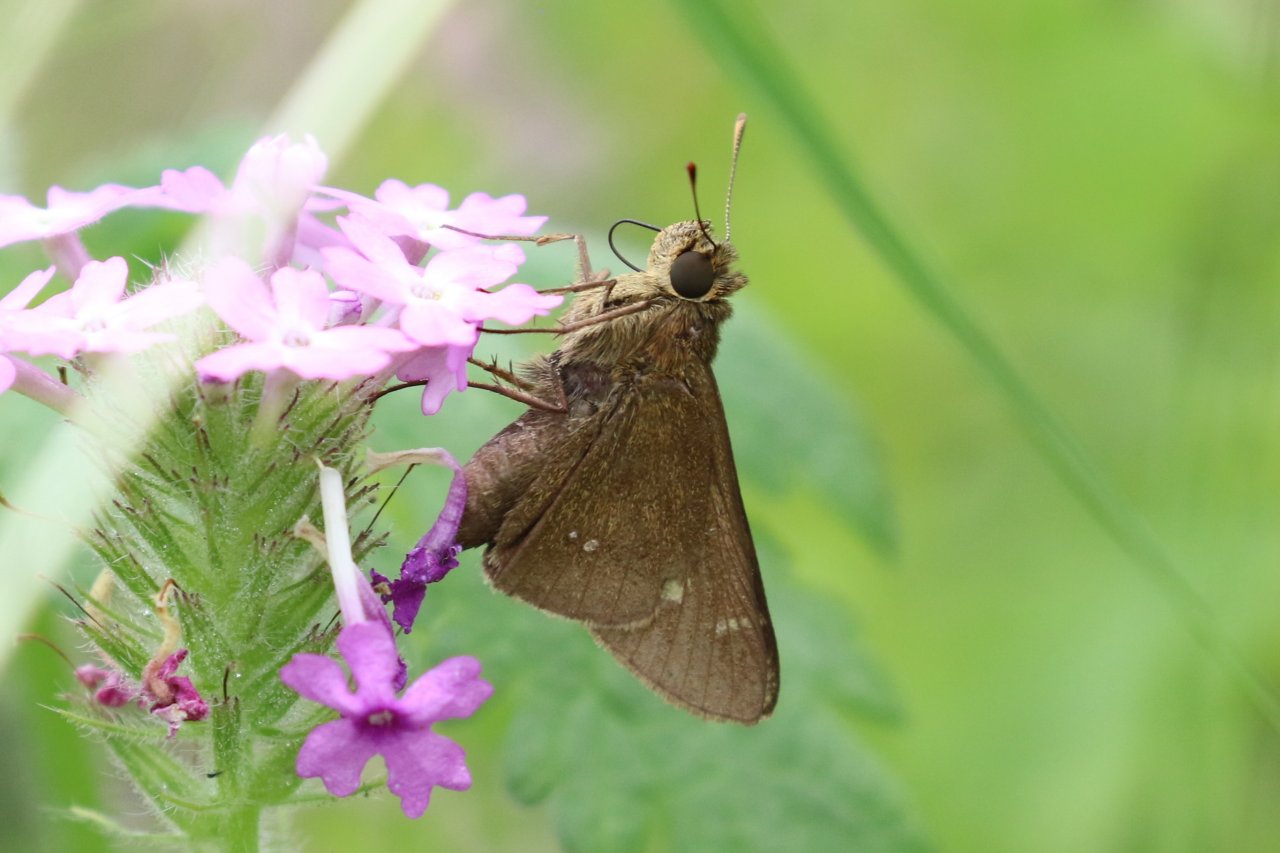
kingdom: Animalia
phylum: Arthropoda
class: Insecta
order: Lepidoptera
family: Hesperiidae
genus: Decinea
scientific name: Decinea percosius
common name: Double-dotted Skipper
